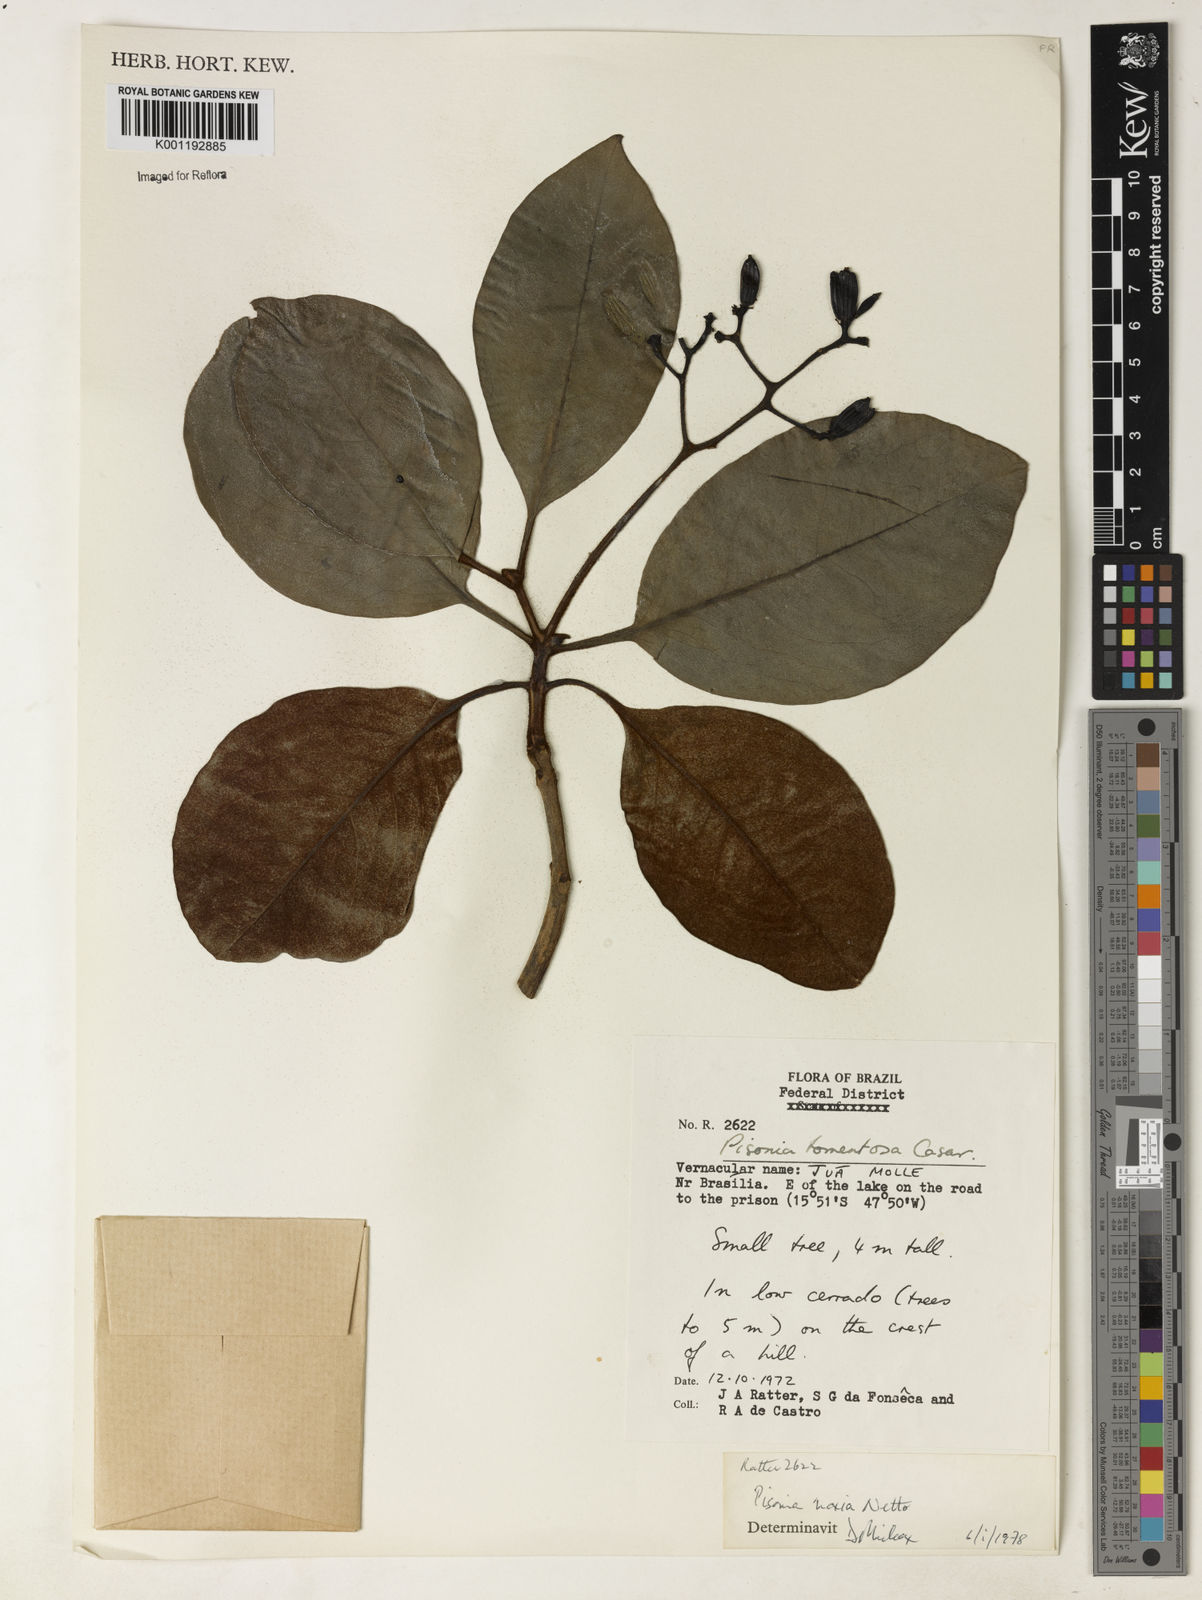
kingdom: Plantae
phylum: Tracheophyta
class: Magnoliopsida
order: Caryophyllales
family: Nyctaginaceae
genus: Guapira
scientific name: Guapira noxia
